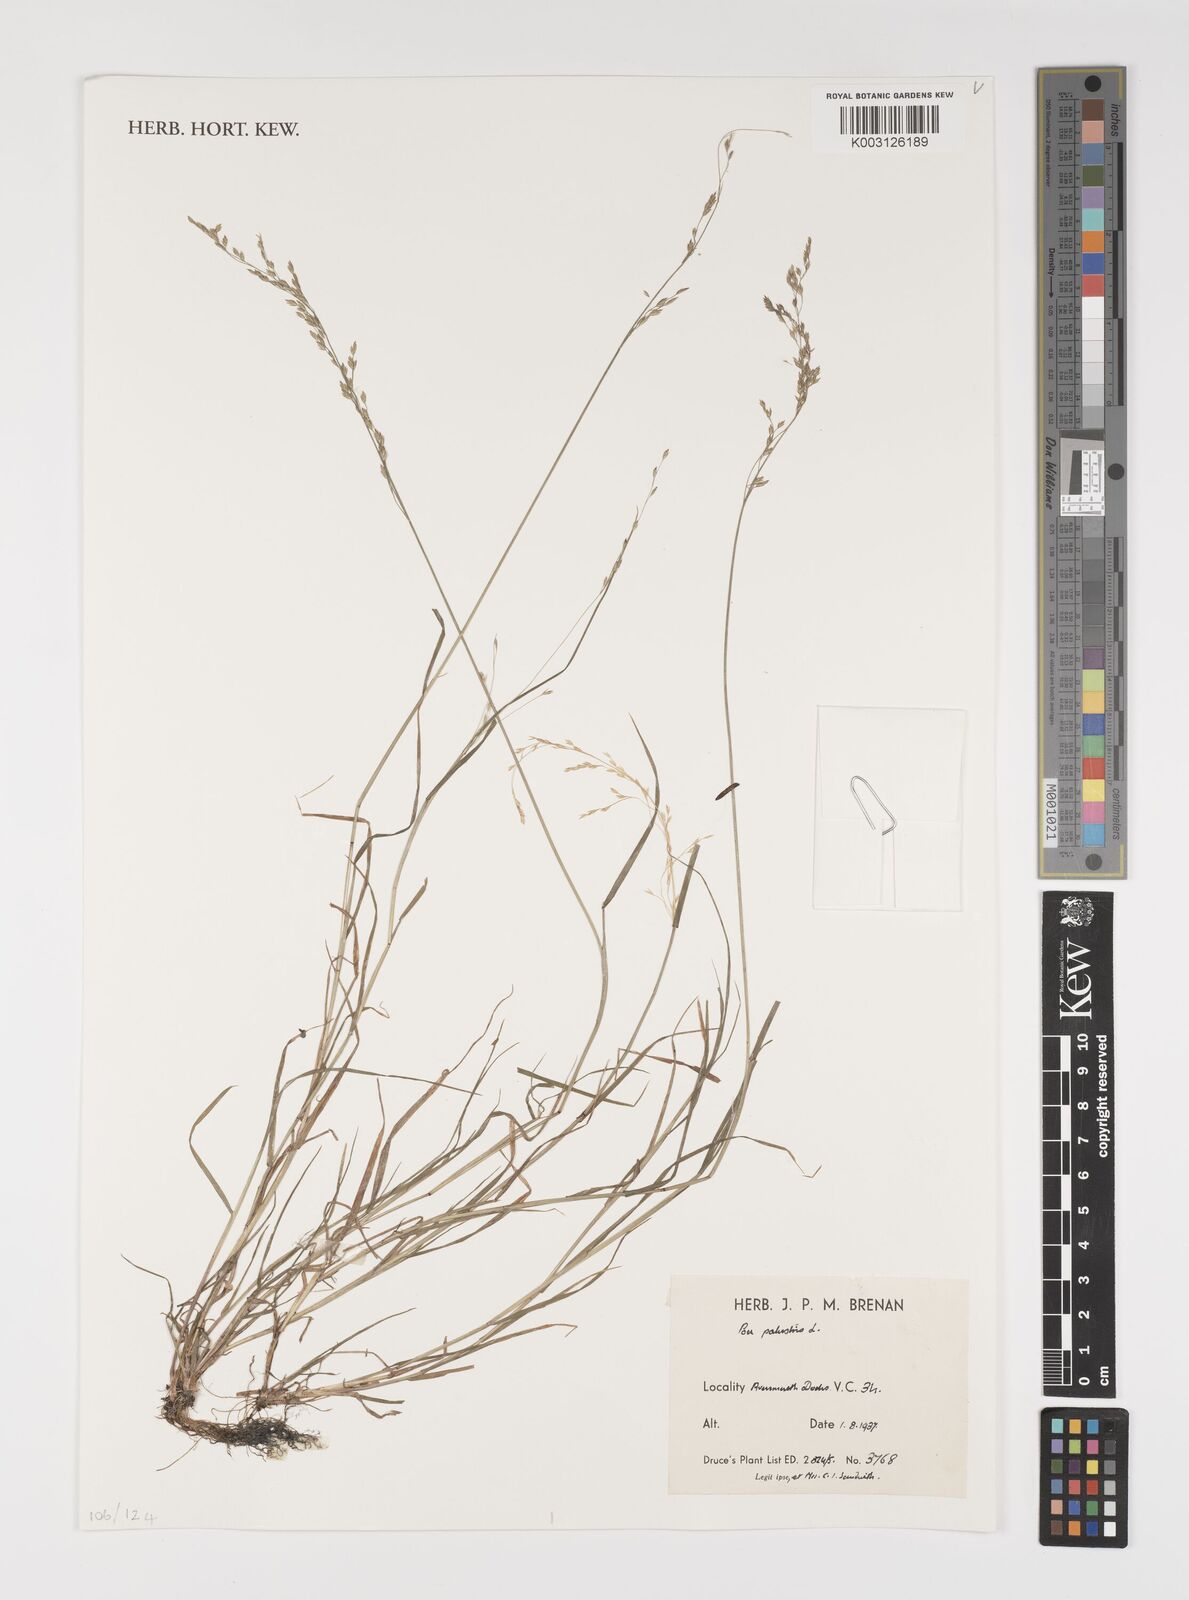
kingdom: Plantae
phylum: Tracheophyta
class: Liliopsida
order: Poales
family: Poaceae
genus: Poa
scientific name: Poa palustris
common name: Swamp meadow-grass
